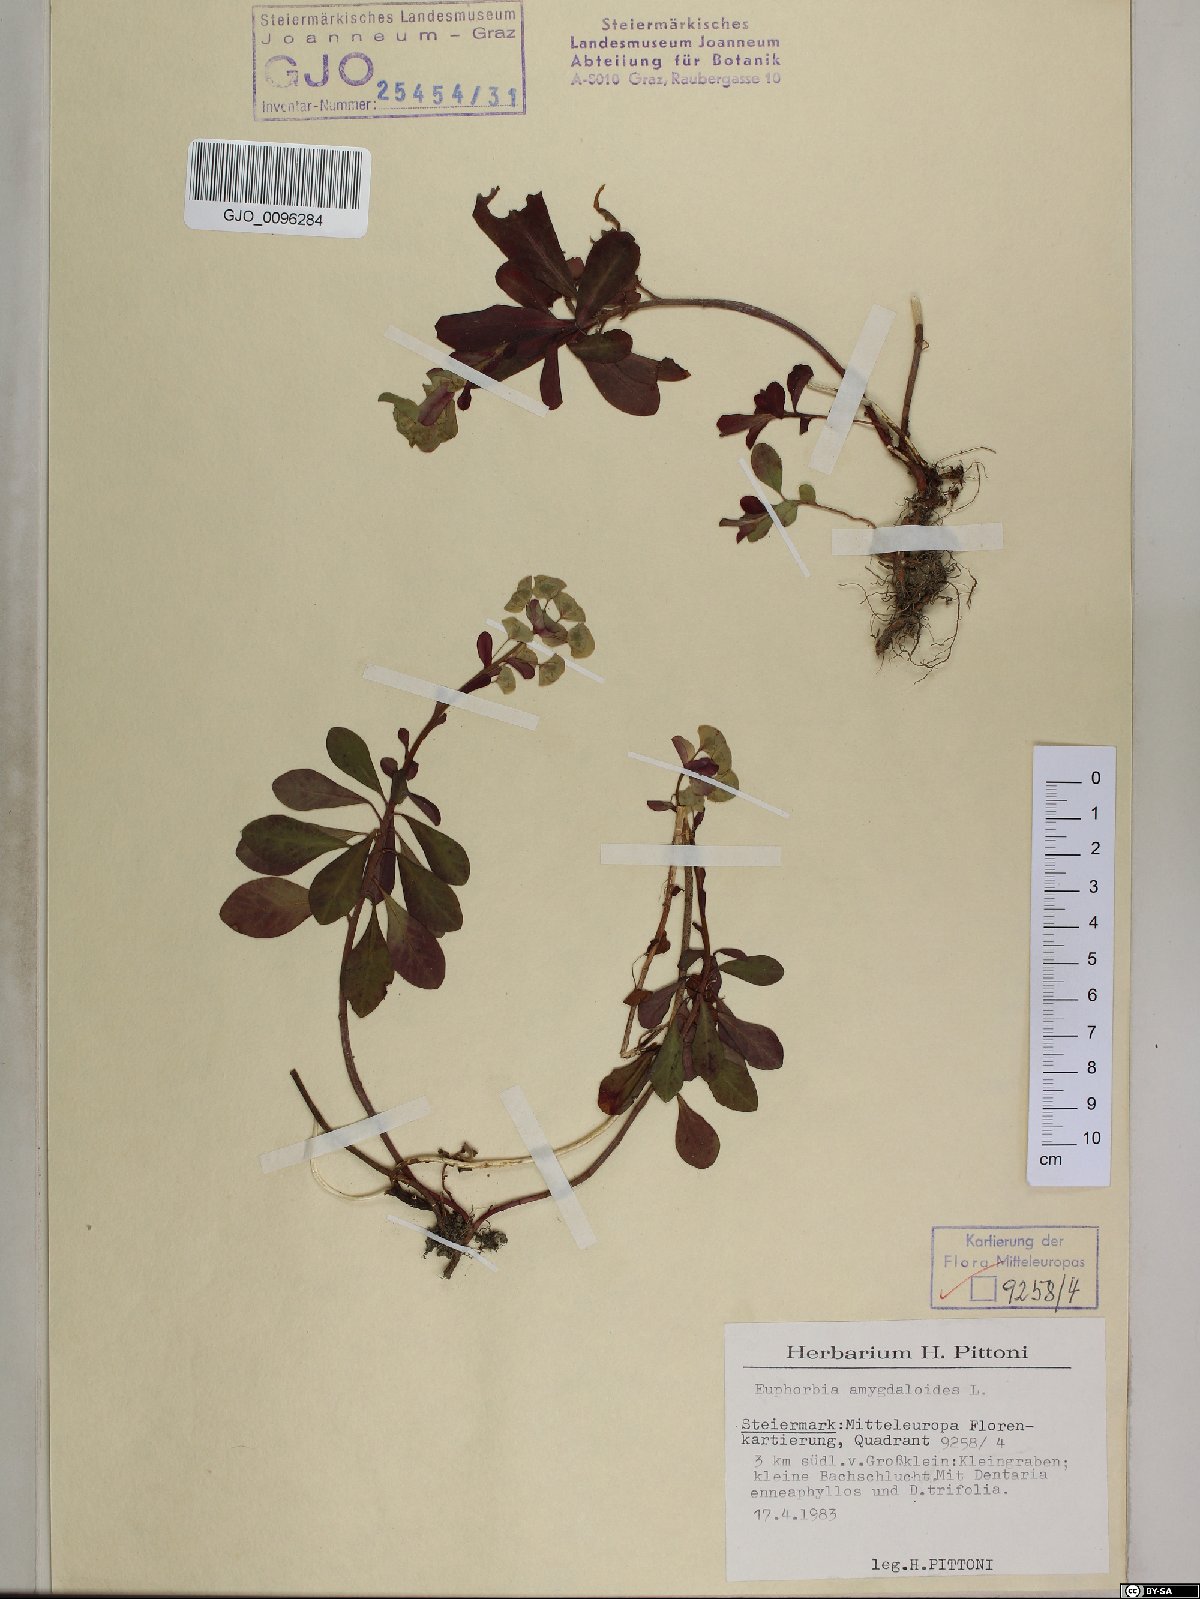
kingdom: Plantae
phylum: Tracheophyta
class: Magnoliopsida
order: Malpighiales
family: Euphorbiaceae
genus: Euphorbia
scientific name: Euphorbia amygdaloides
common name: Wood spurge
